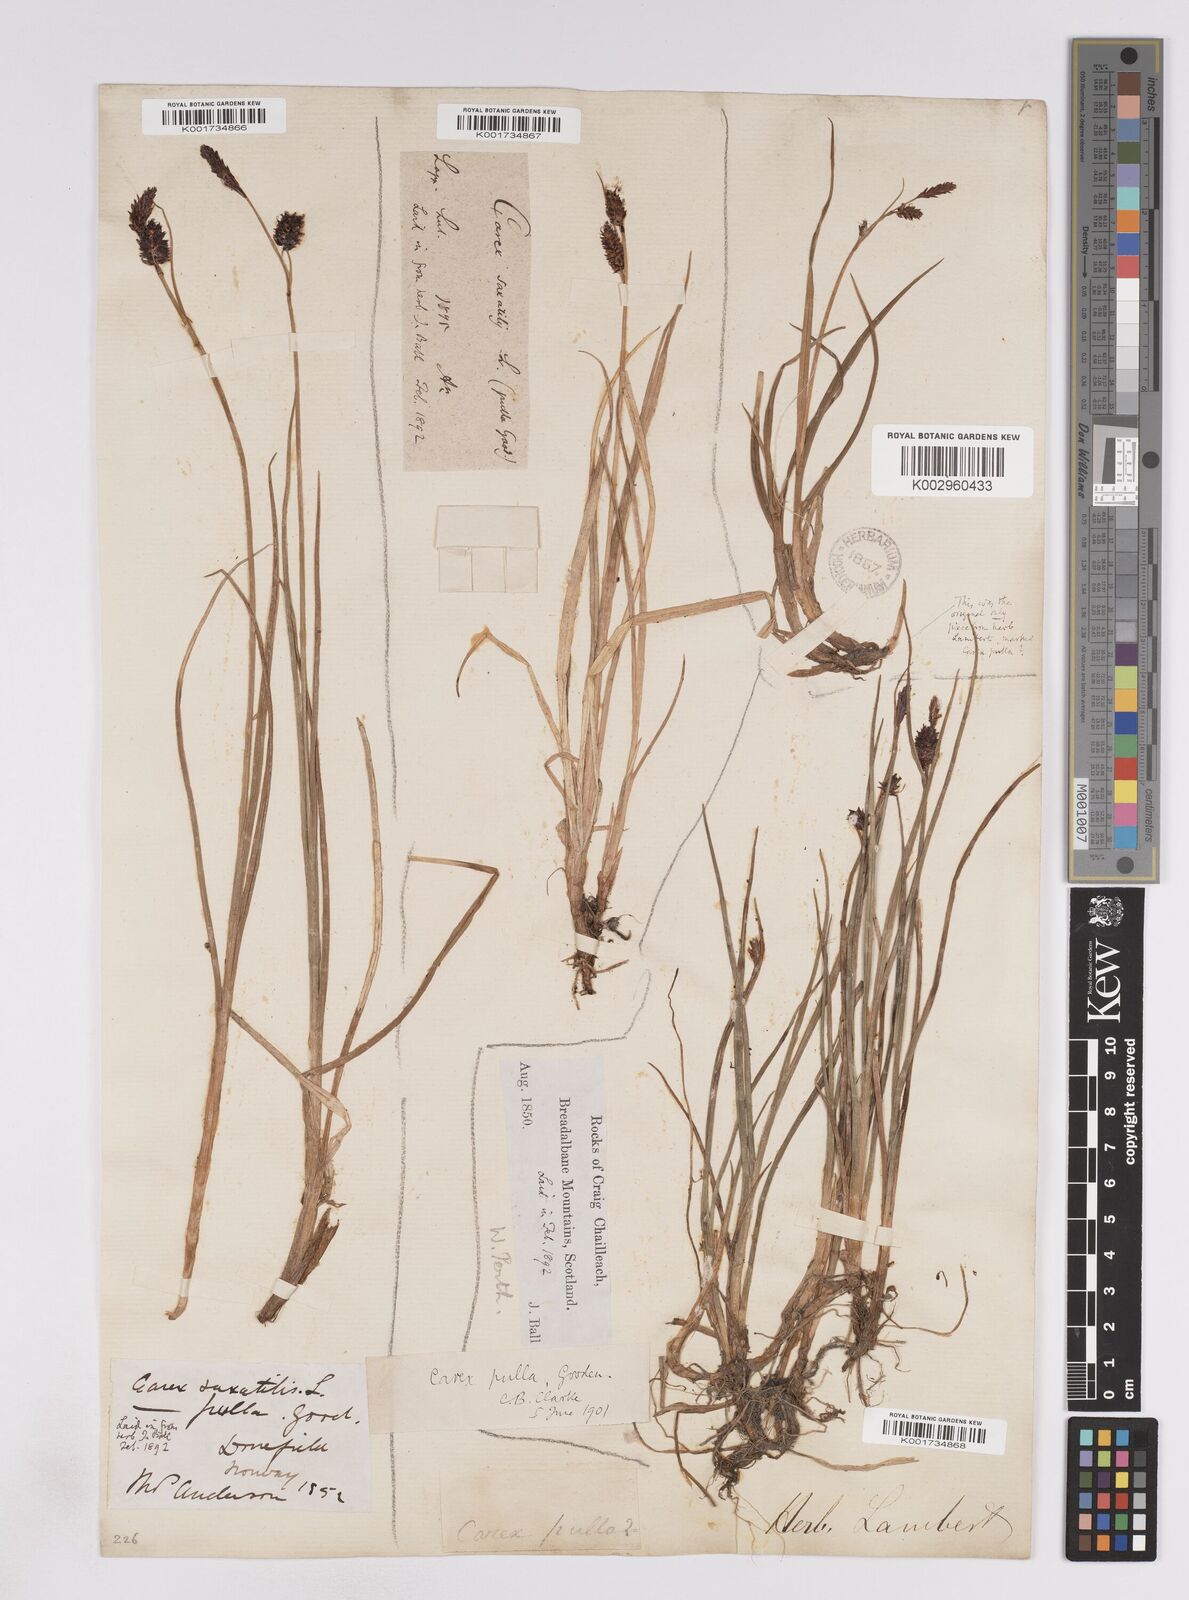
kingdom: Plantae
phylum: Tracheophyta
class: Liliopsida
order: Poales
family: Cyperaceae
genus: Carex
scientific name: Carex saxatilis
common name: Russet sedge
